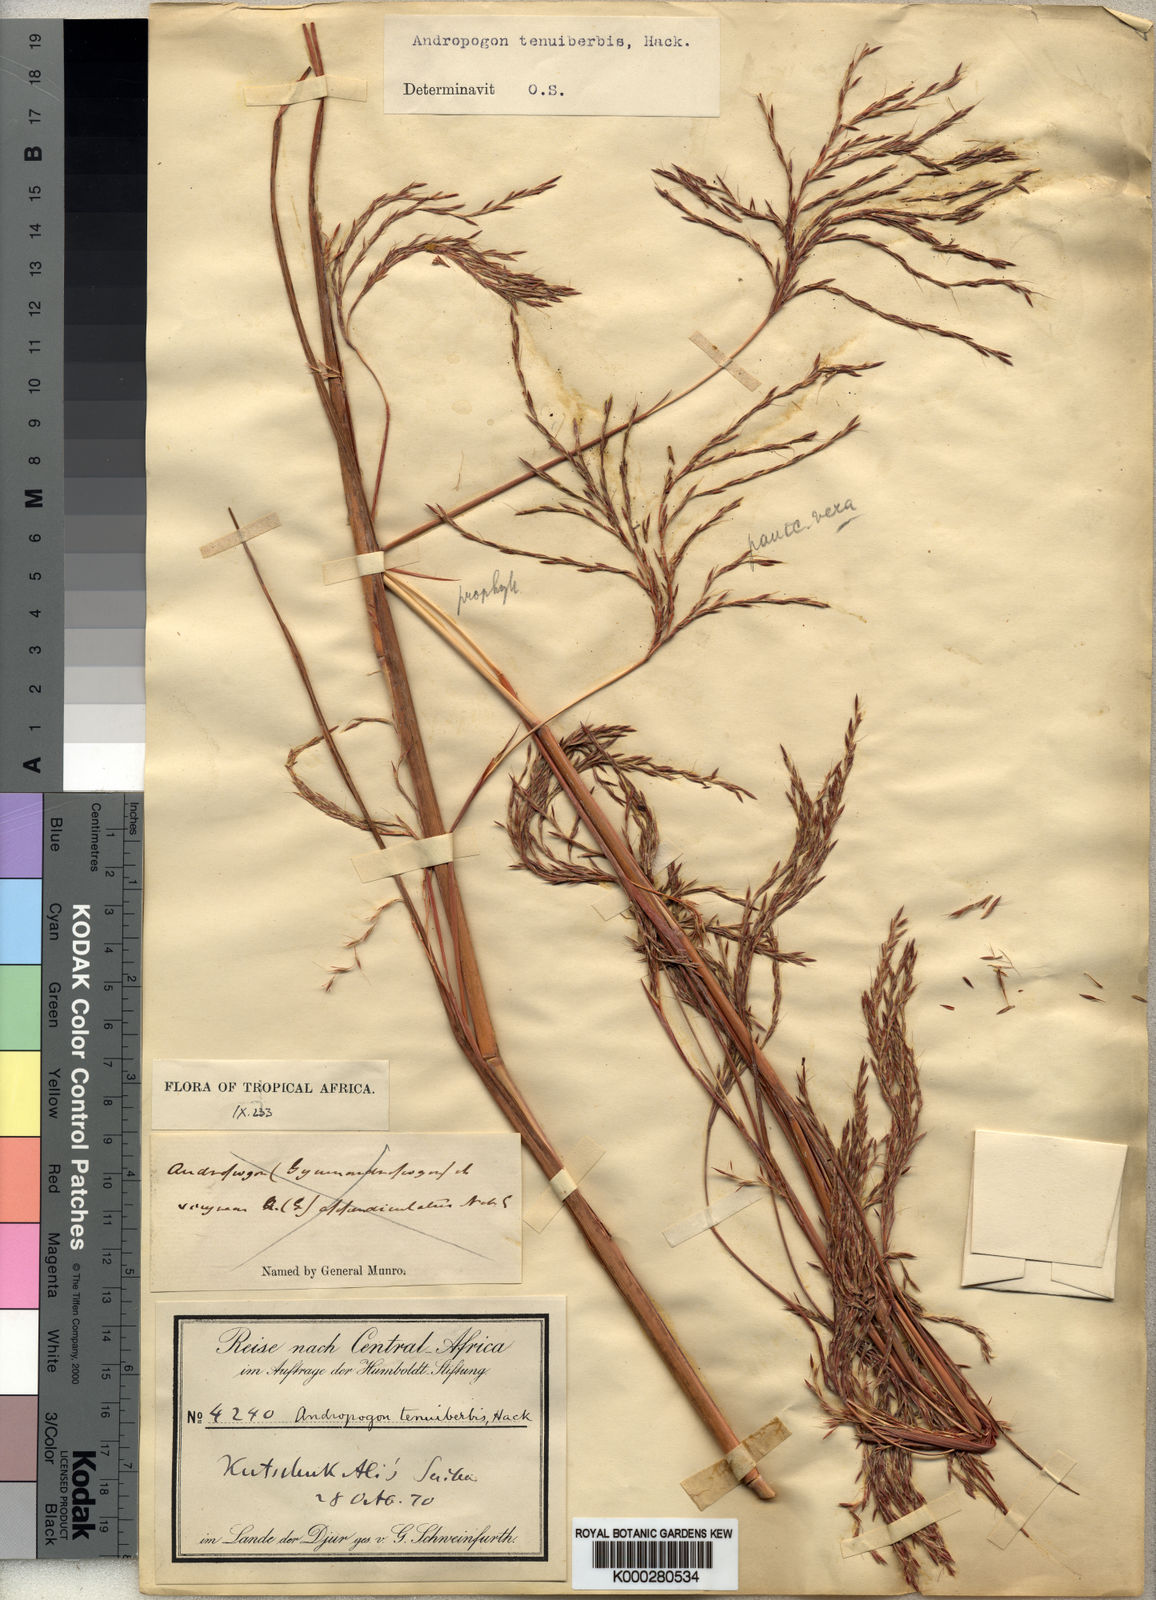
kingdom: Plantae
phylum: Tracheophyta
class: Liliopsida
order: Poales
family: Poaceae
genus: Andropogon
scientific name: Andropogon tenuiberbis
